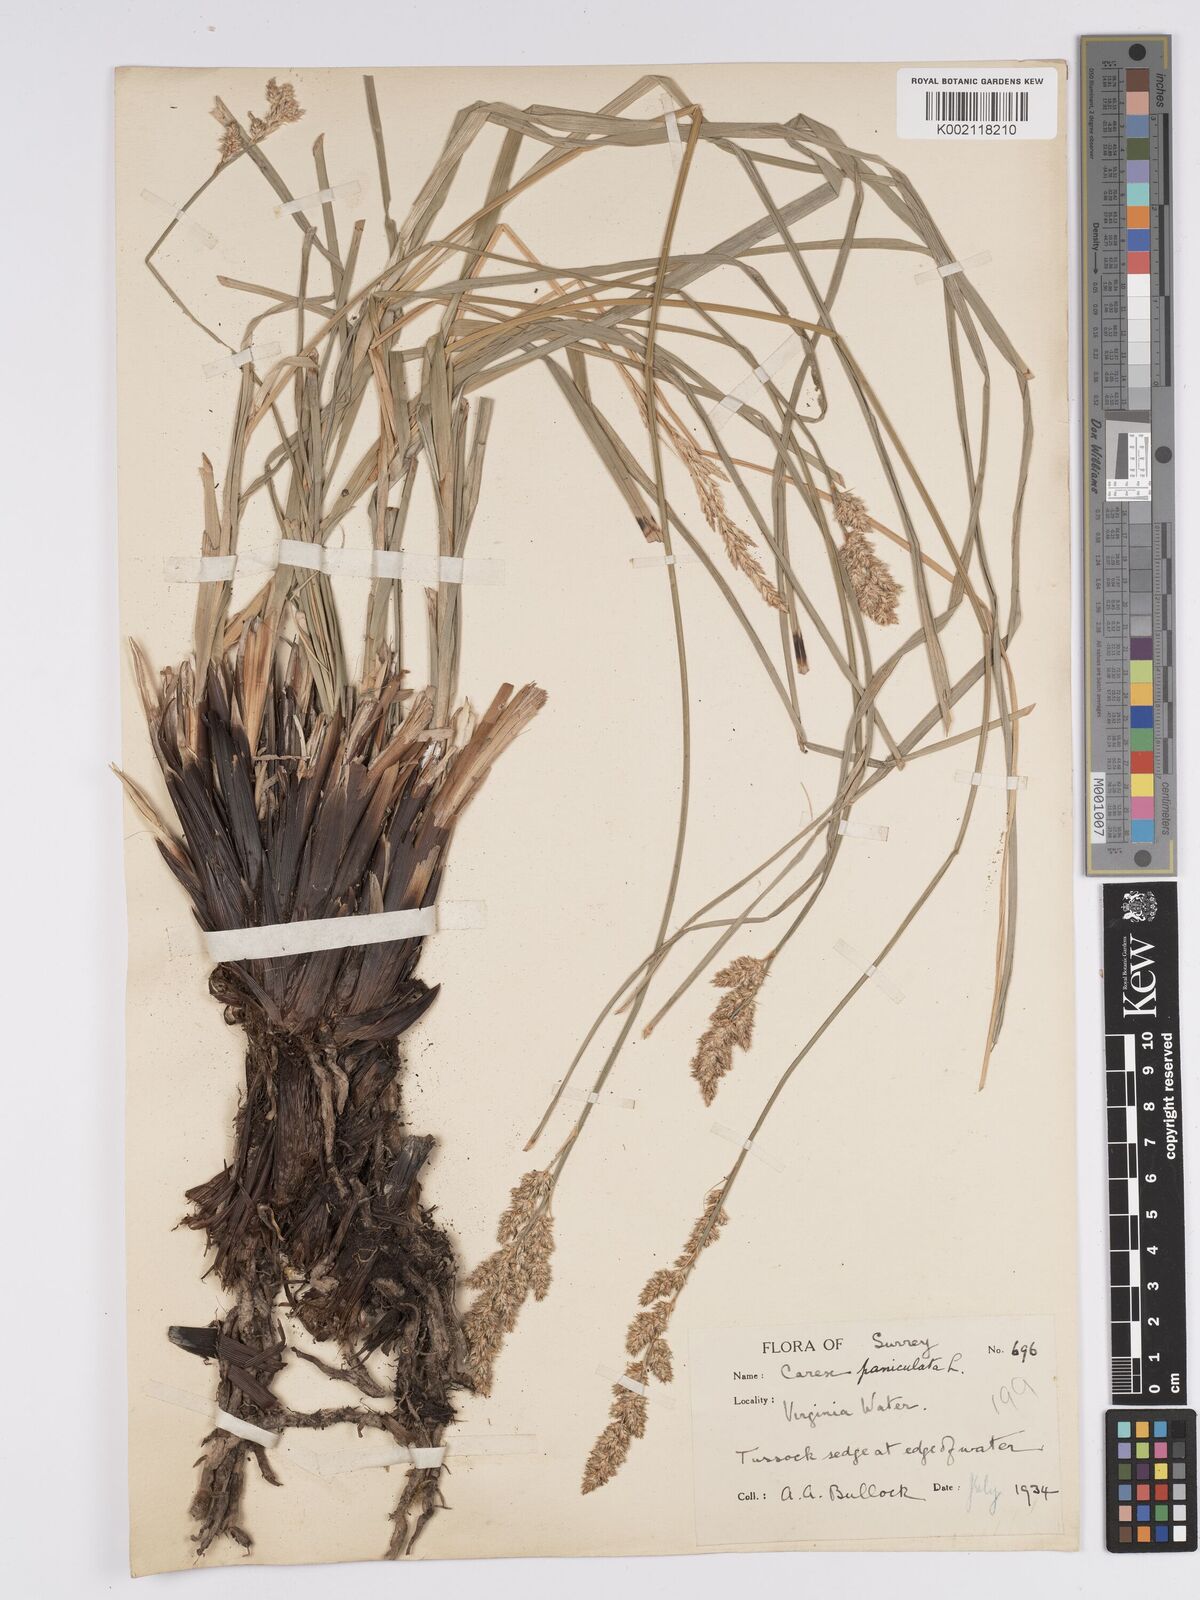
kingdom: Plantae
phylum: Tracheophyta
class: Liliopsida
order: Poales
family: Cyperaceae
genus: Carex
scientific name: Carex paniculata
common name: Greater tussock-sedge
